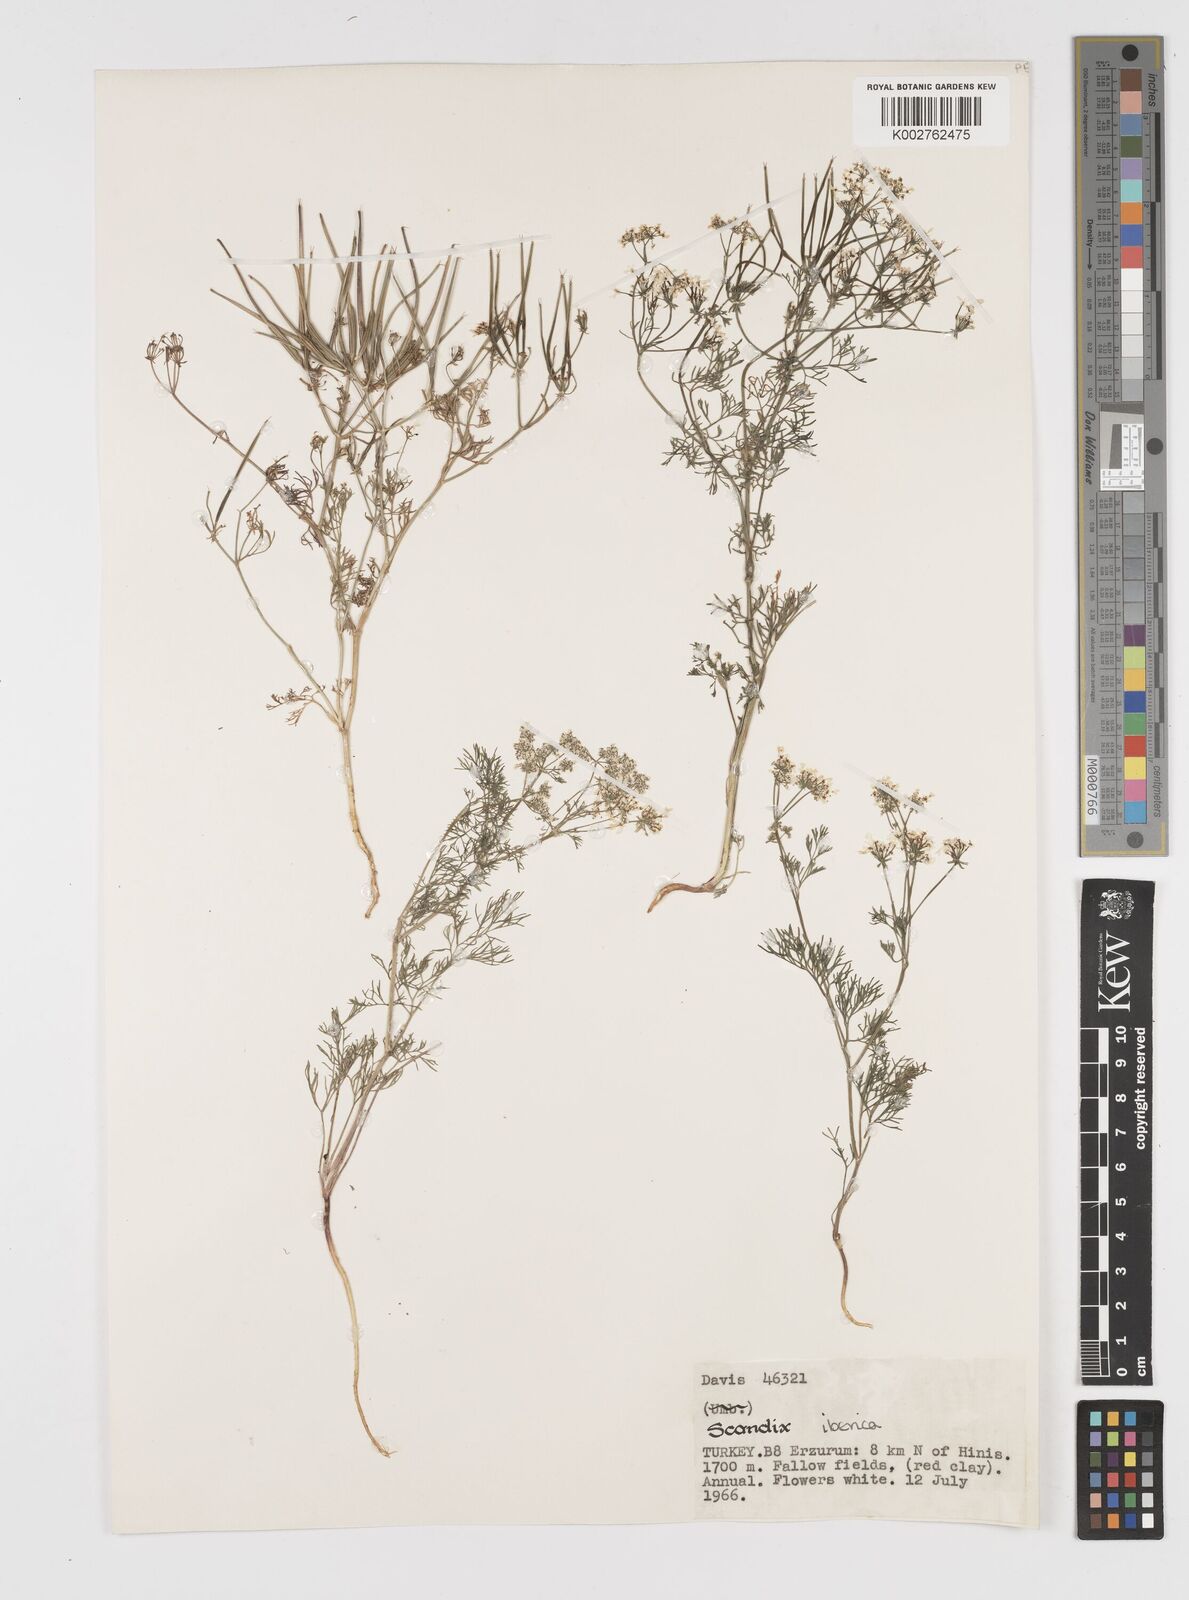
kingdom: Plantae
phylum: Tracheophyta
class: Magnoliopsida
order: Apiales
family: Apiaceae
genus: Scandix
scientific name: Scandix iberica
